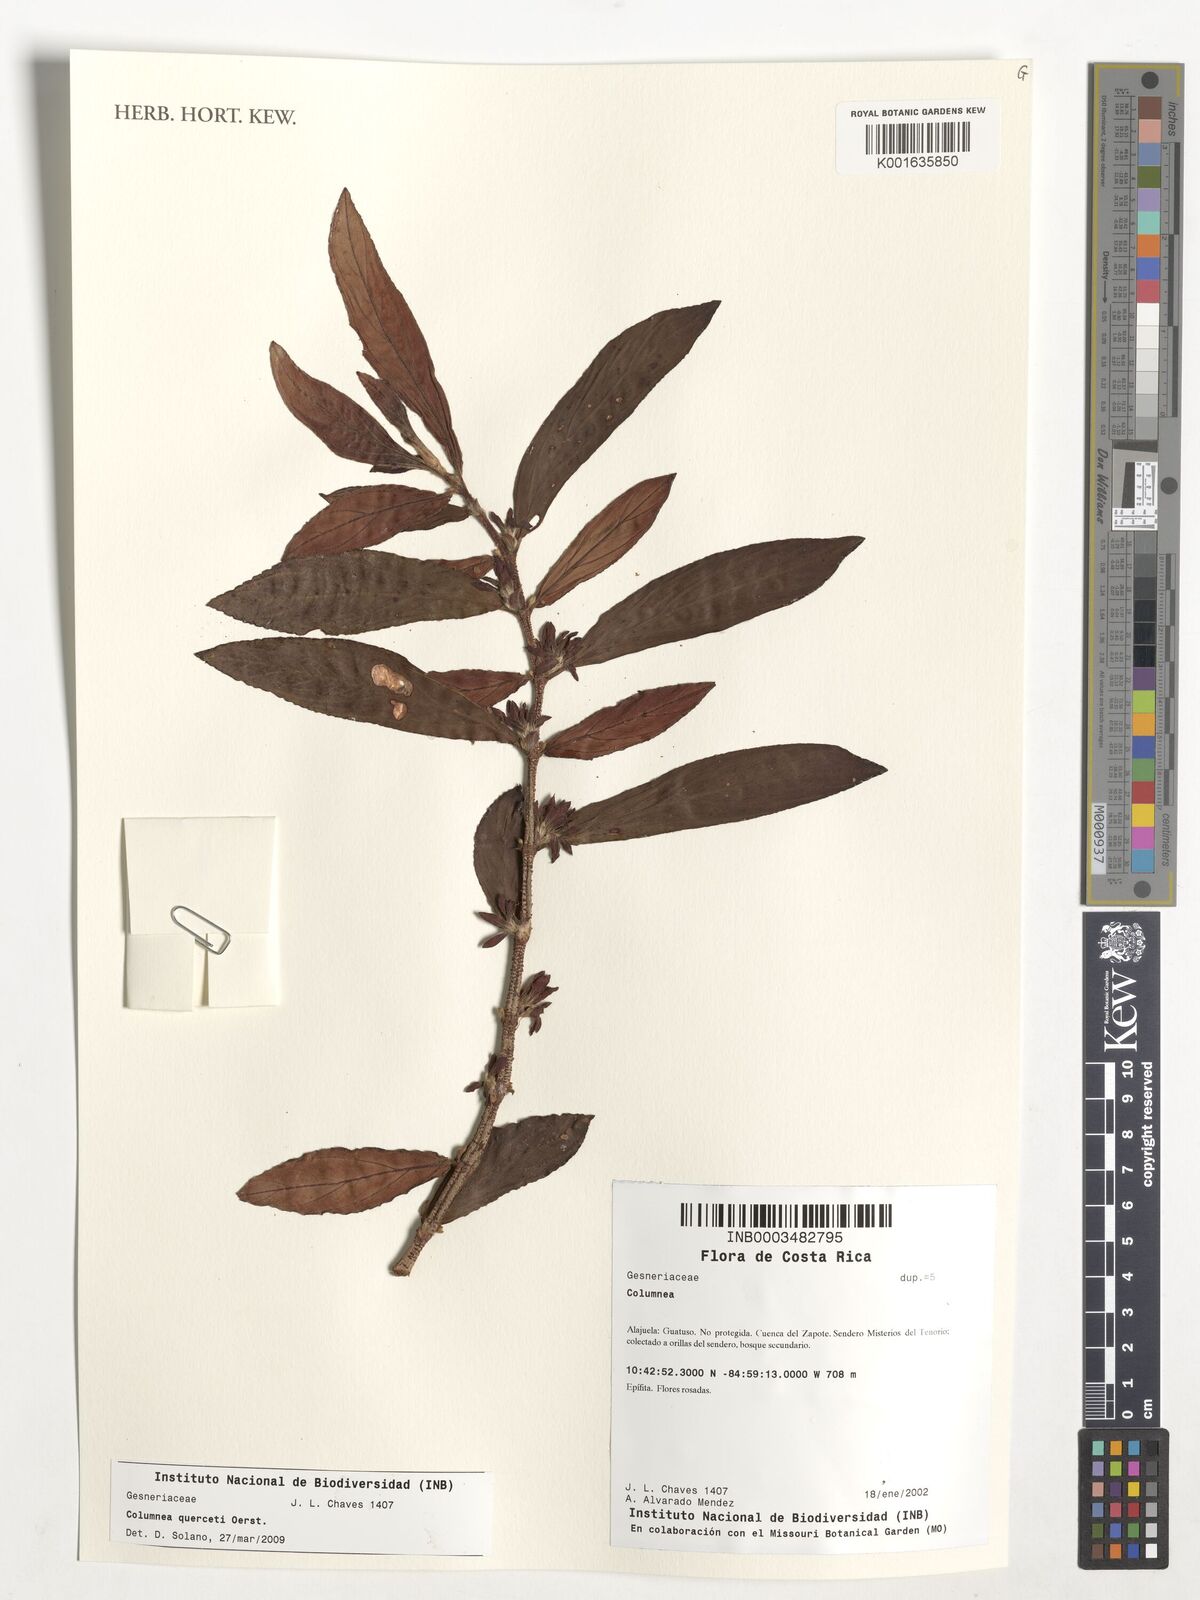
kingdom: Plantae
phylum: Tracheophyta
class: Magnoliopsida
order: Lamiales
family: Gesneriaceae
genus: Columnea
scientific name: Columnea querceti
